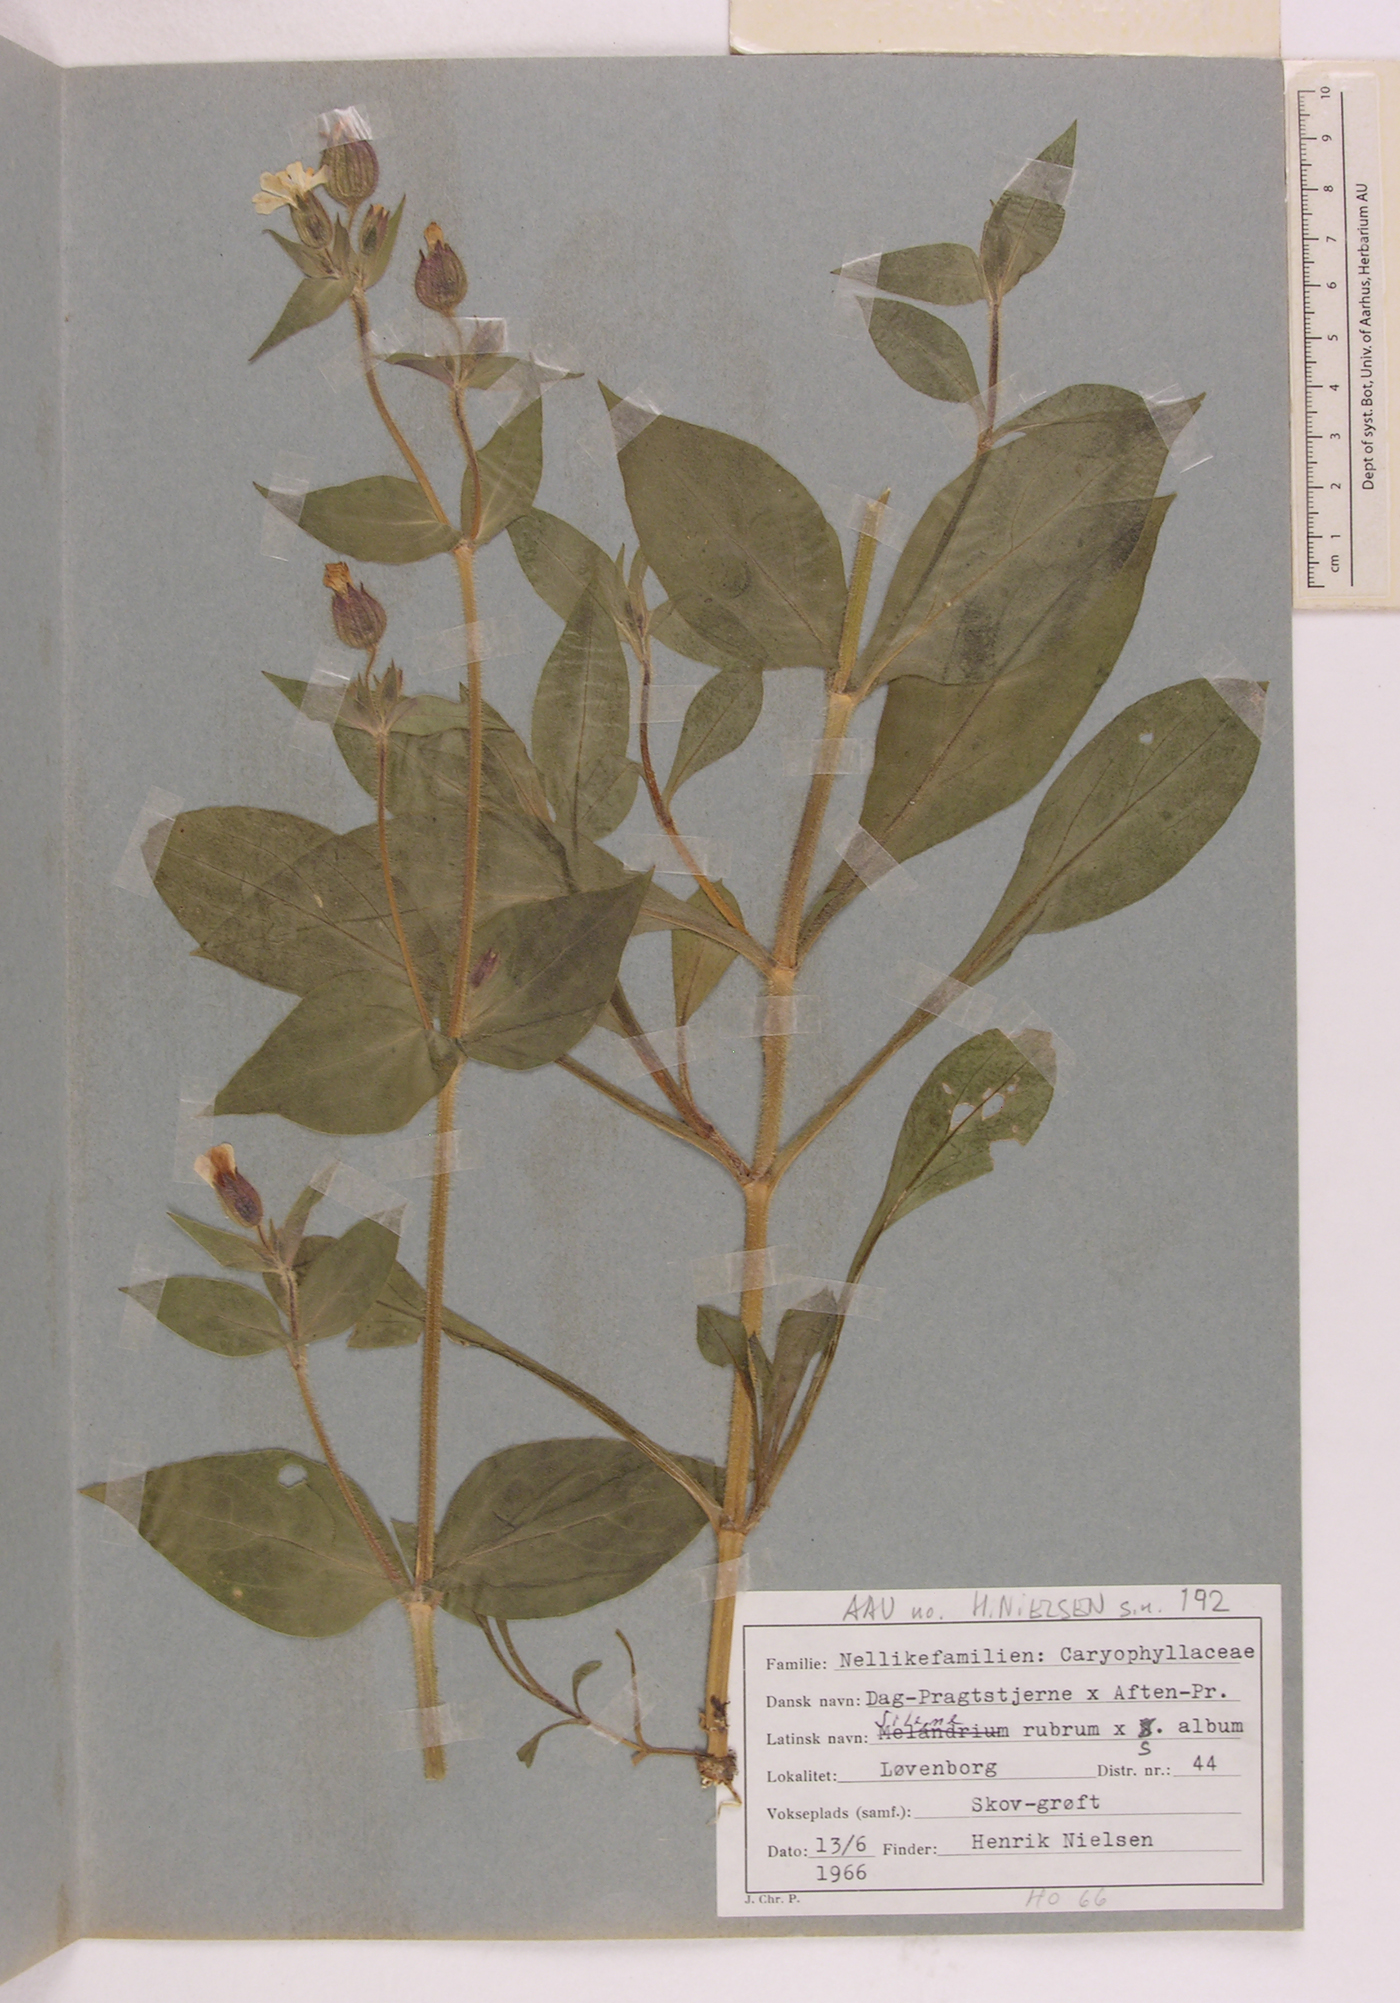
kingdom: Plantae
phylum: Tracheophyta
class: Magnoliopsida
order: Caryophyllales
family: Caryophyllaceae
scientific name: Caryophyllaceae
